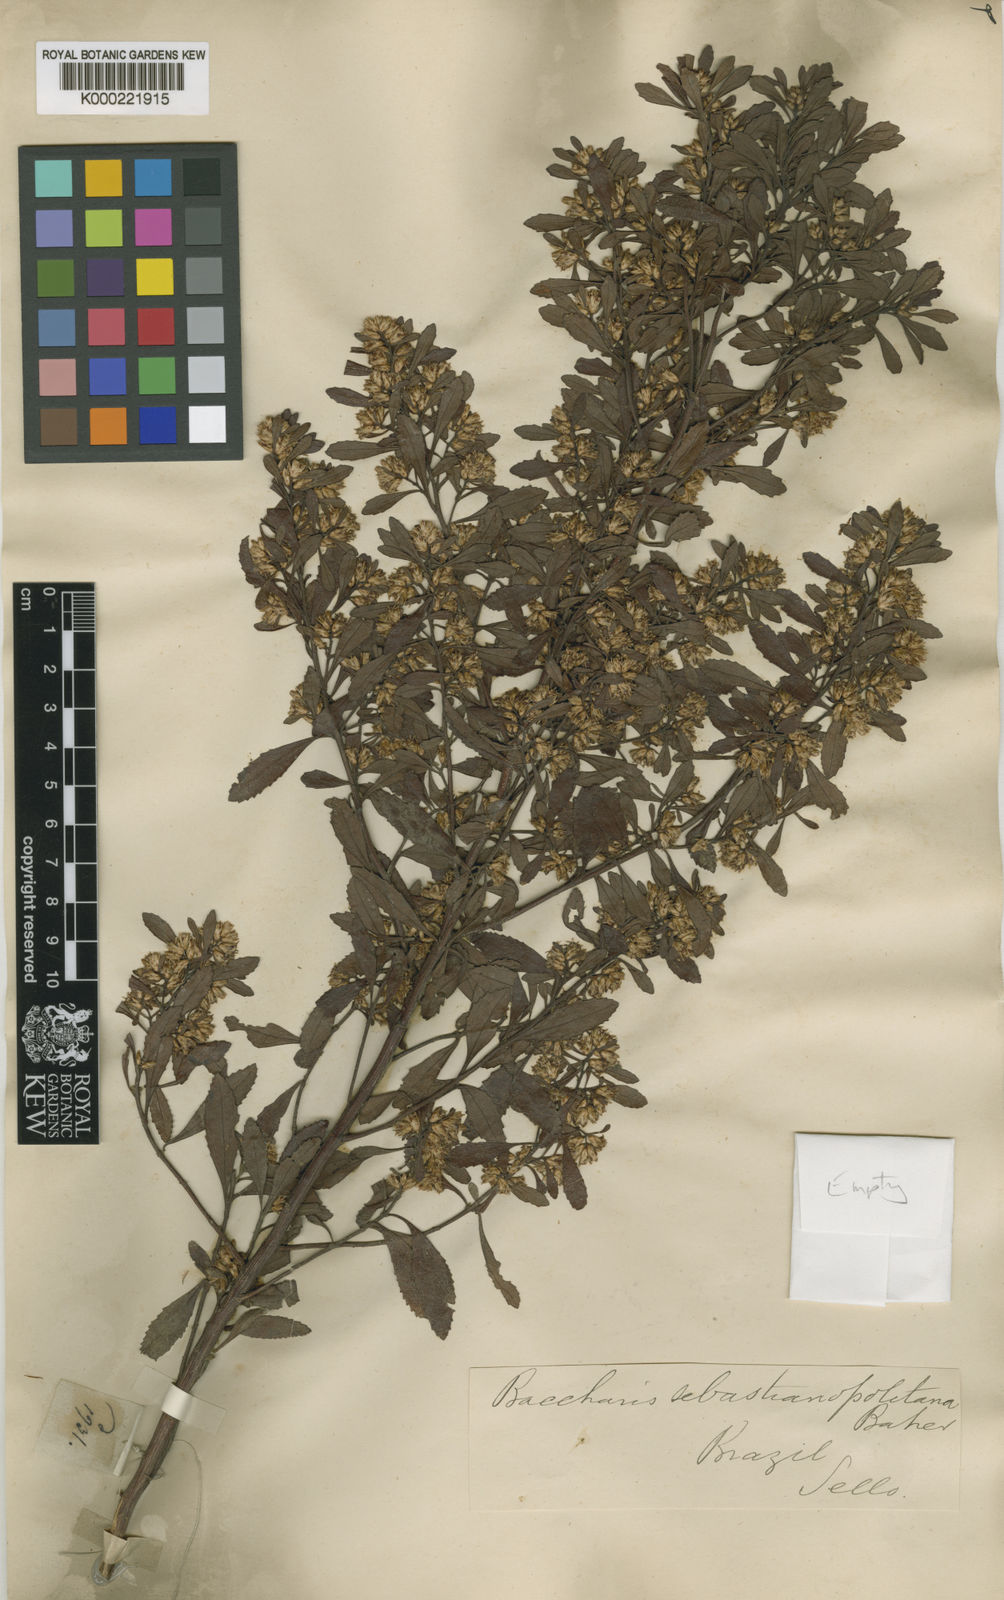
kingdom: Plantae
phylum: Tracheophyta
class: Magnoliopsida
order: Asterales
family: Asteraceae
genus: Baccharis
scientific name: Baccharis microdonta
